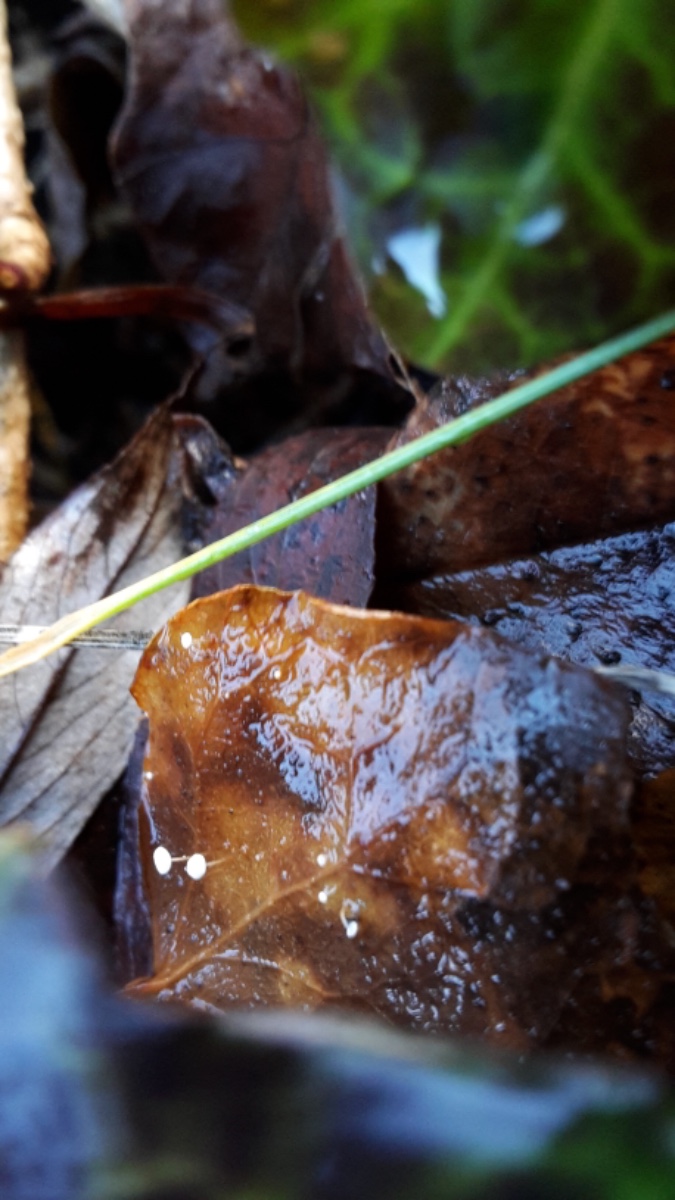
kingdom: Fungi
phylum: Basidiomycota
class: Agaricomycetes
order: Agaricales
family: Marasmiaceae
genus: Marasmius
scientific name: Marasmius epiphylloides
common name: vedbend-bruskhat
